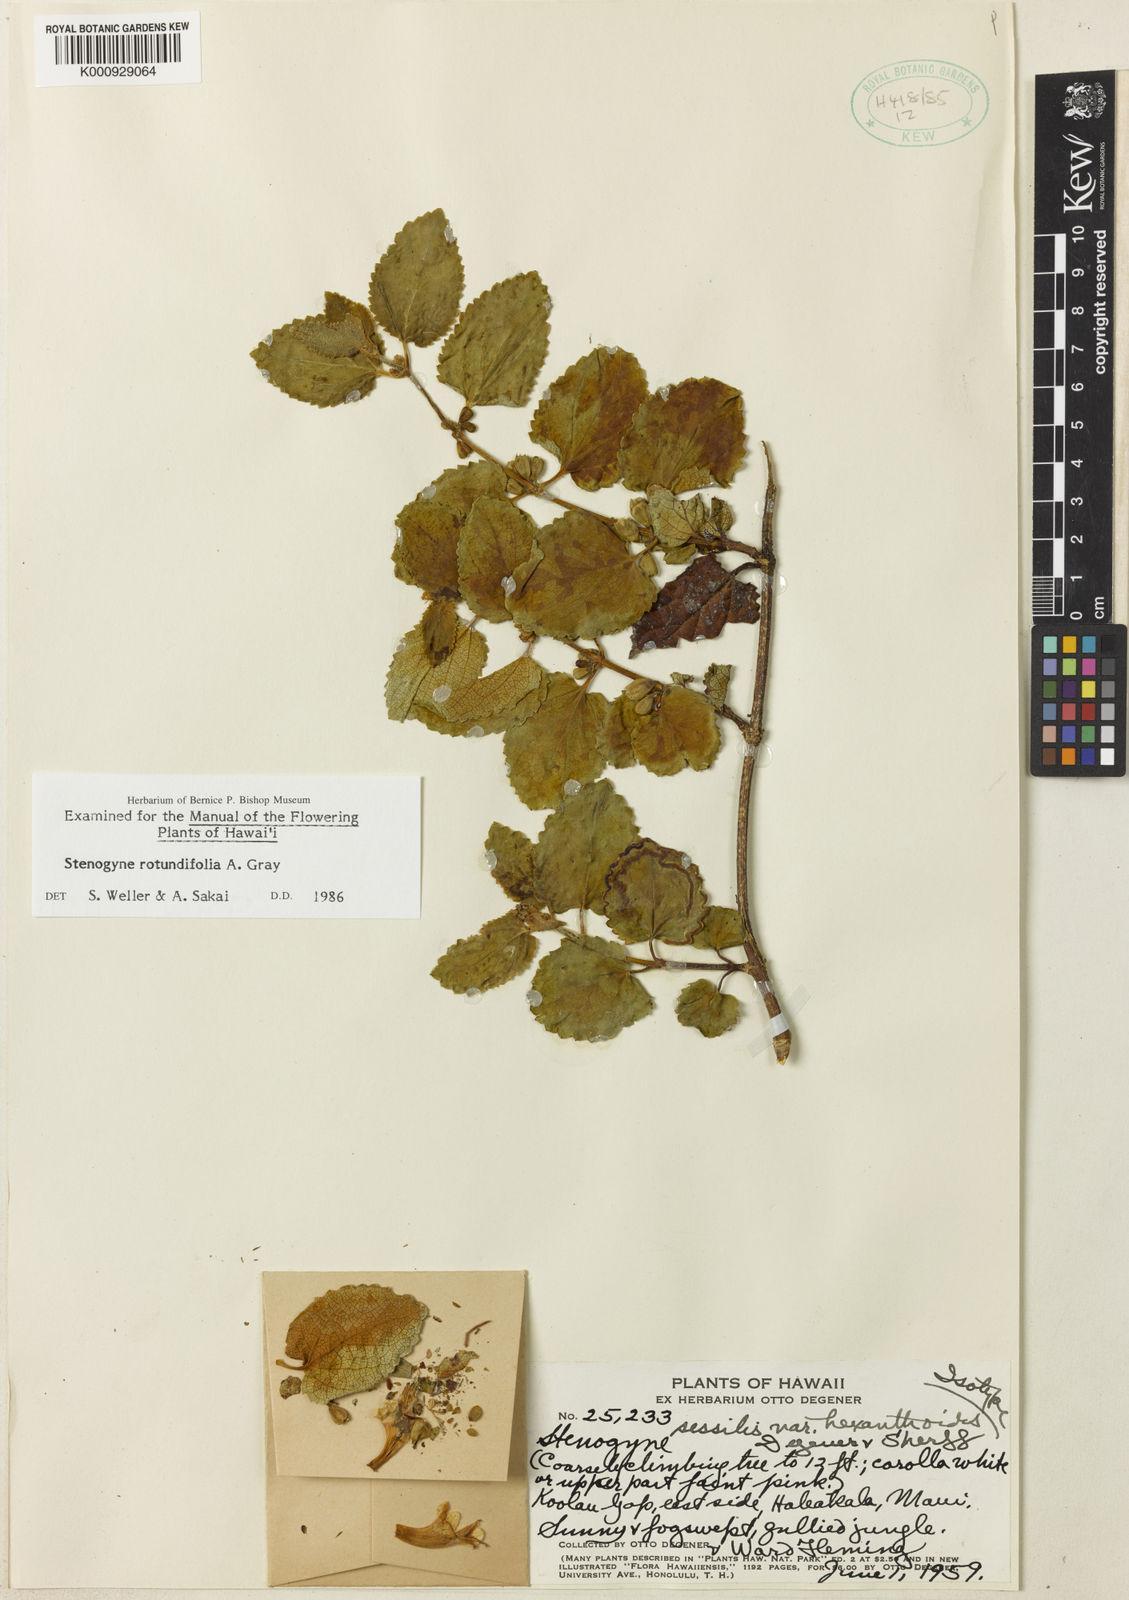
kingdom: Plantae
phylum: Tracheophyta
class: Magnoliopsida
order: Lamiales
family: Lamiaceae
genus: Stenogyne
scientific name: Stenogyne sessilis
